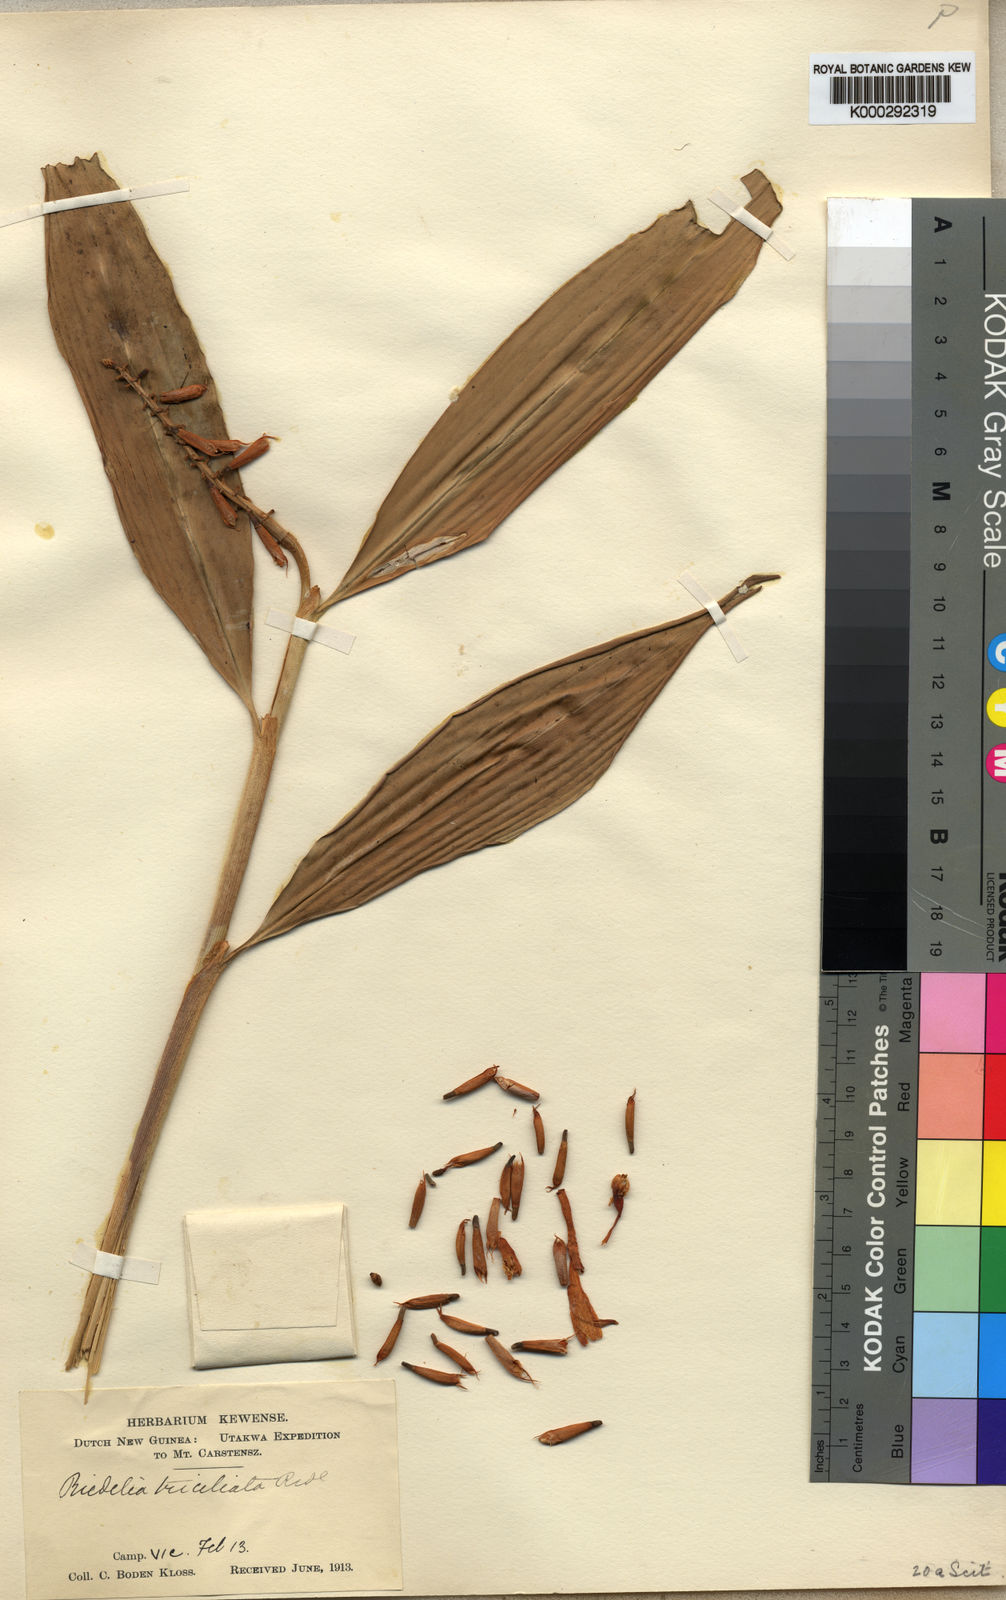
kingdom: Plantae
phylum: Tracheophyta
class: Liliopsida
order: Zingiberales
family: Zingiberaceae
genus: Riedelia
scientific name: Riedelia triciliata
